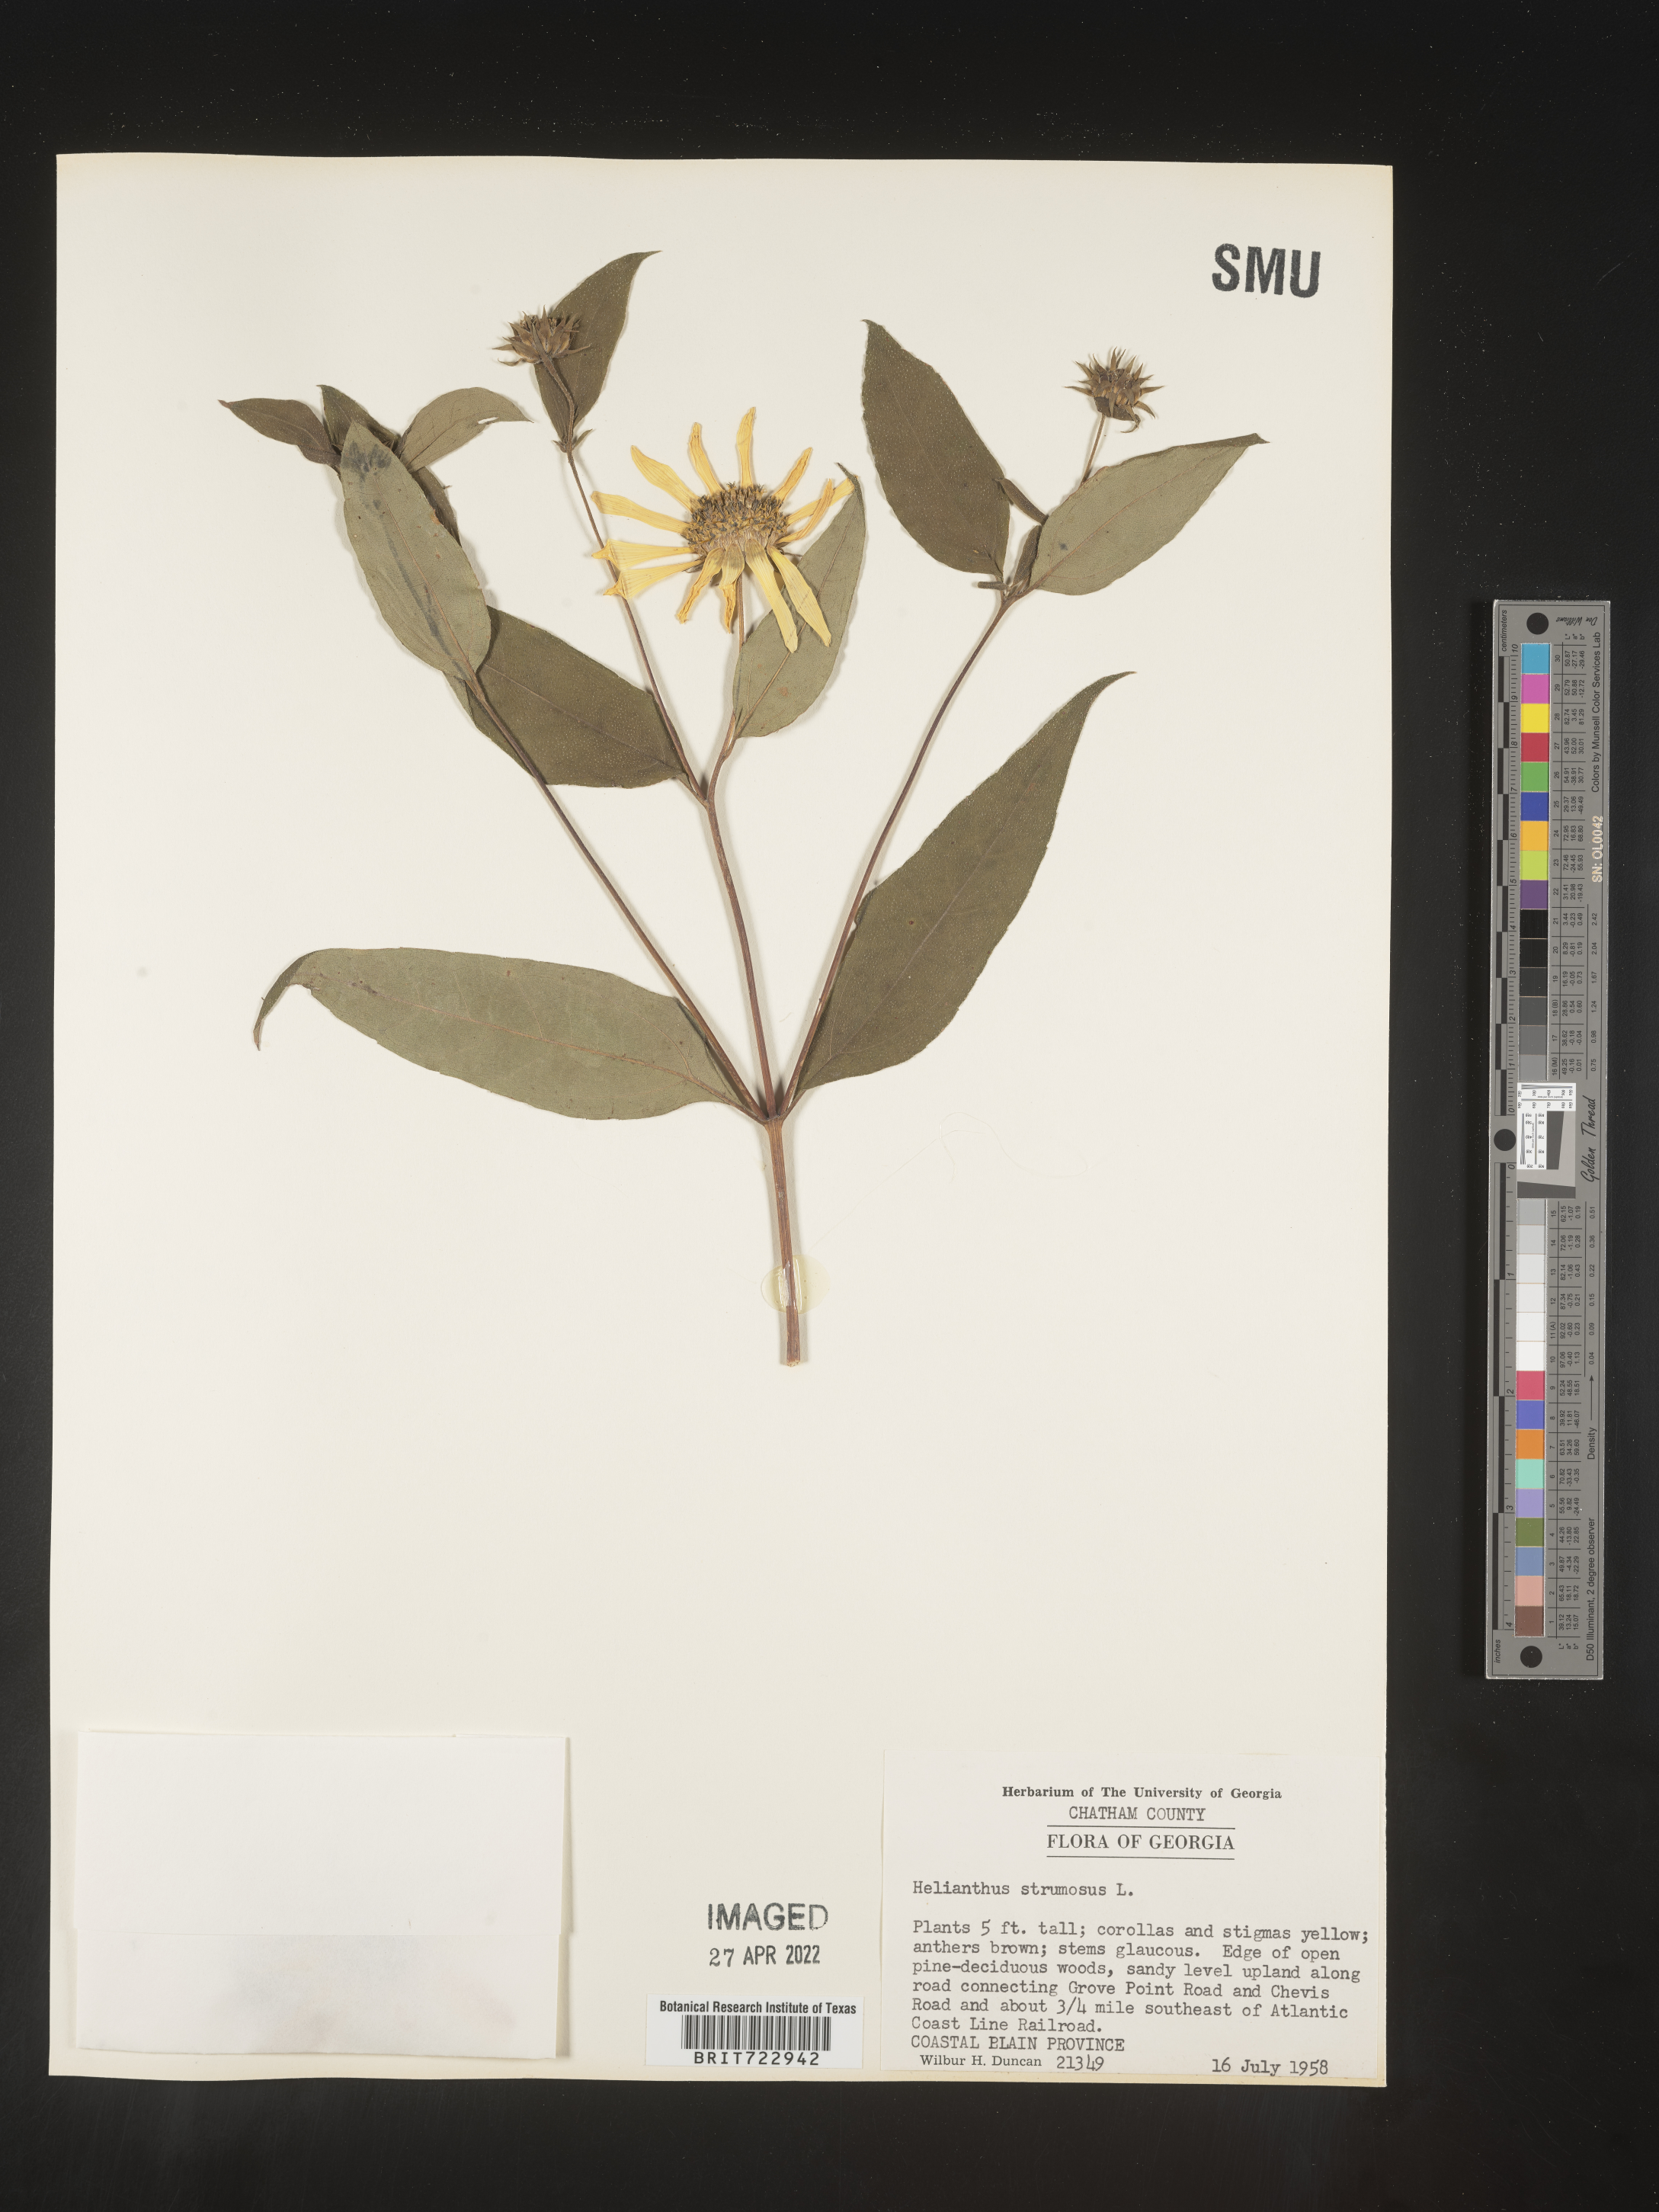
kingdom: Plantae
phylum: Tracheophyta
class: Magnoliopsida
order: Asterales
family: Asteraceae
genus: Helianthus
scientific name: Helianthus strumosus
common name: Pale-leaved sunflower
